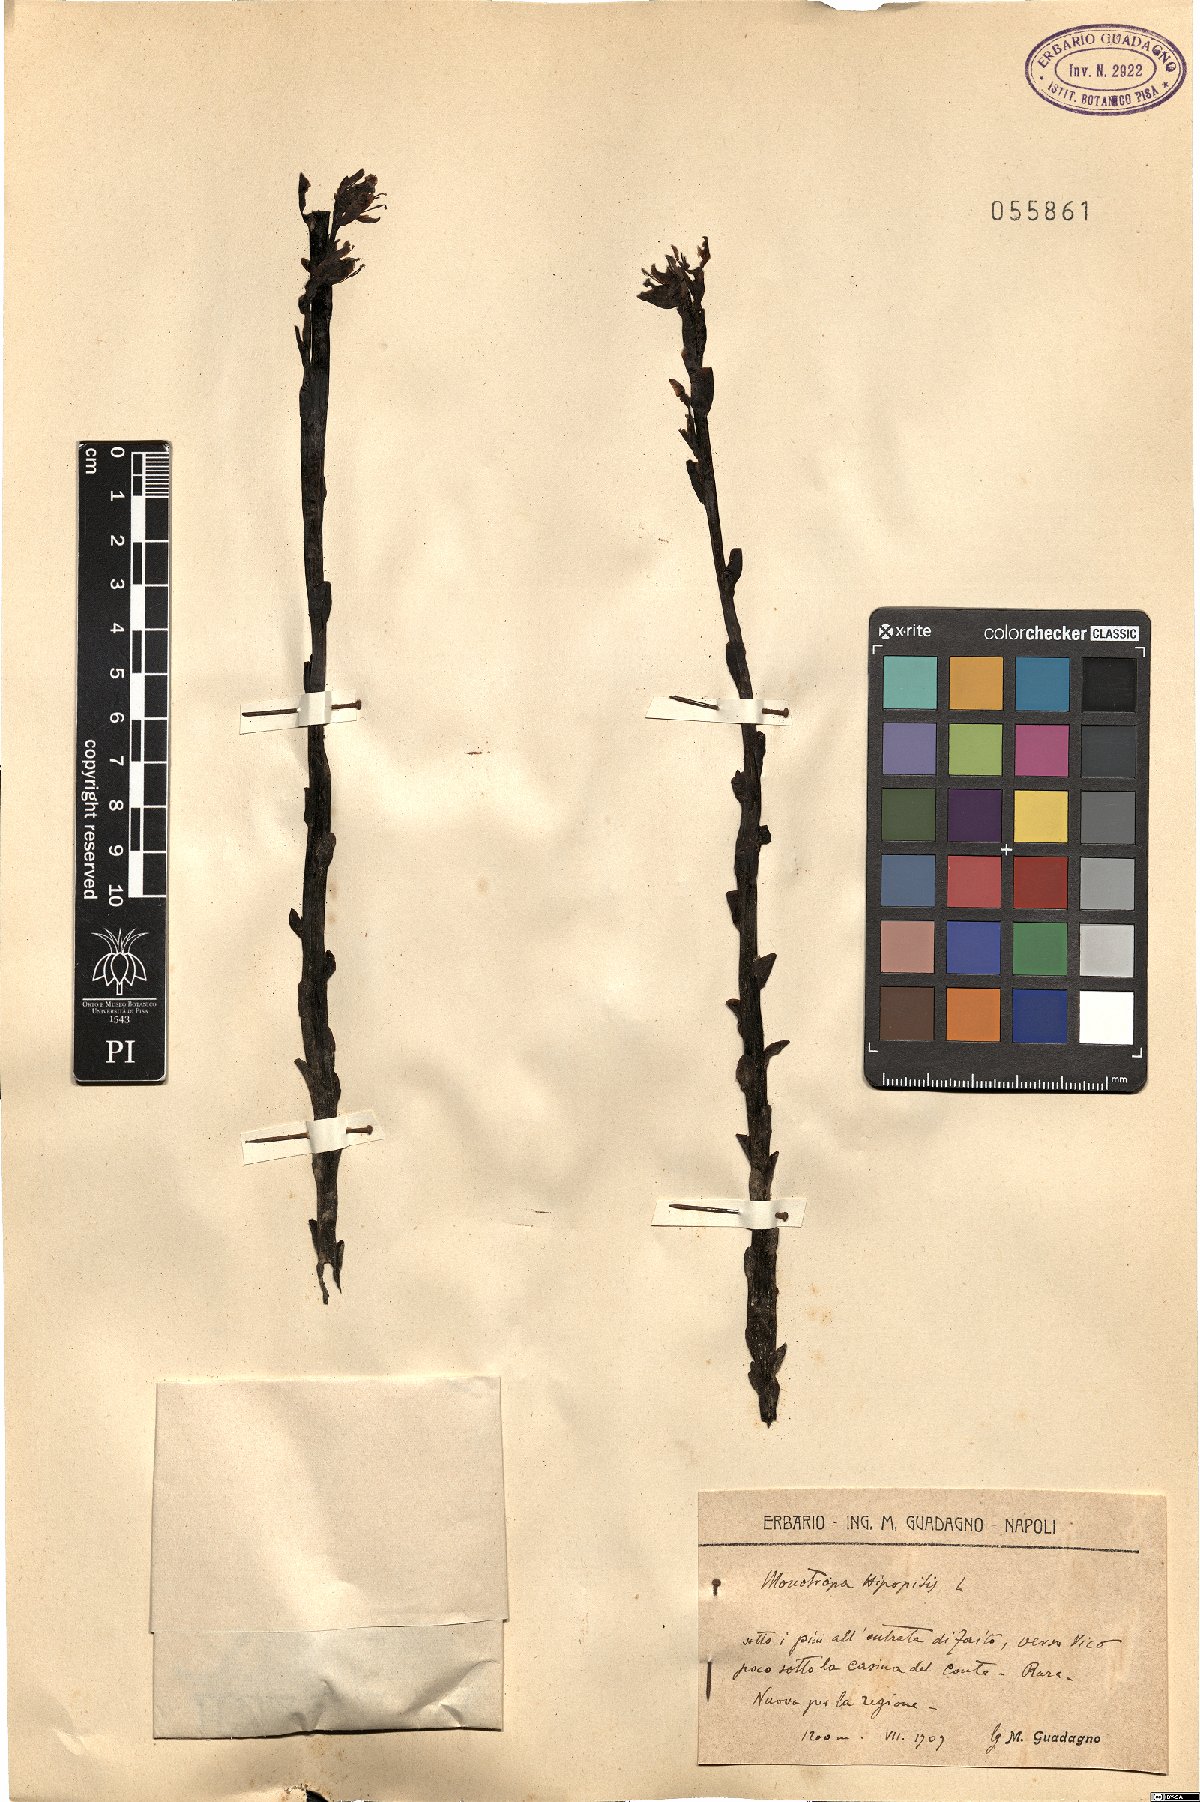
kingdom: Plantae
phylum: Tracheophyta
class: Magnoliopsida
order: Ericales
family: Ericaceae
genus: Hypopitys
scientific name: Hypopitys monotropa
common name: Yellow bird's-nest
